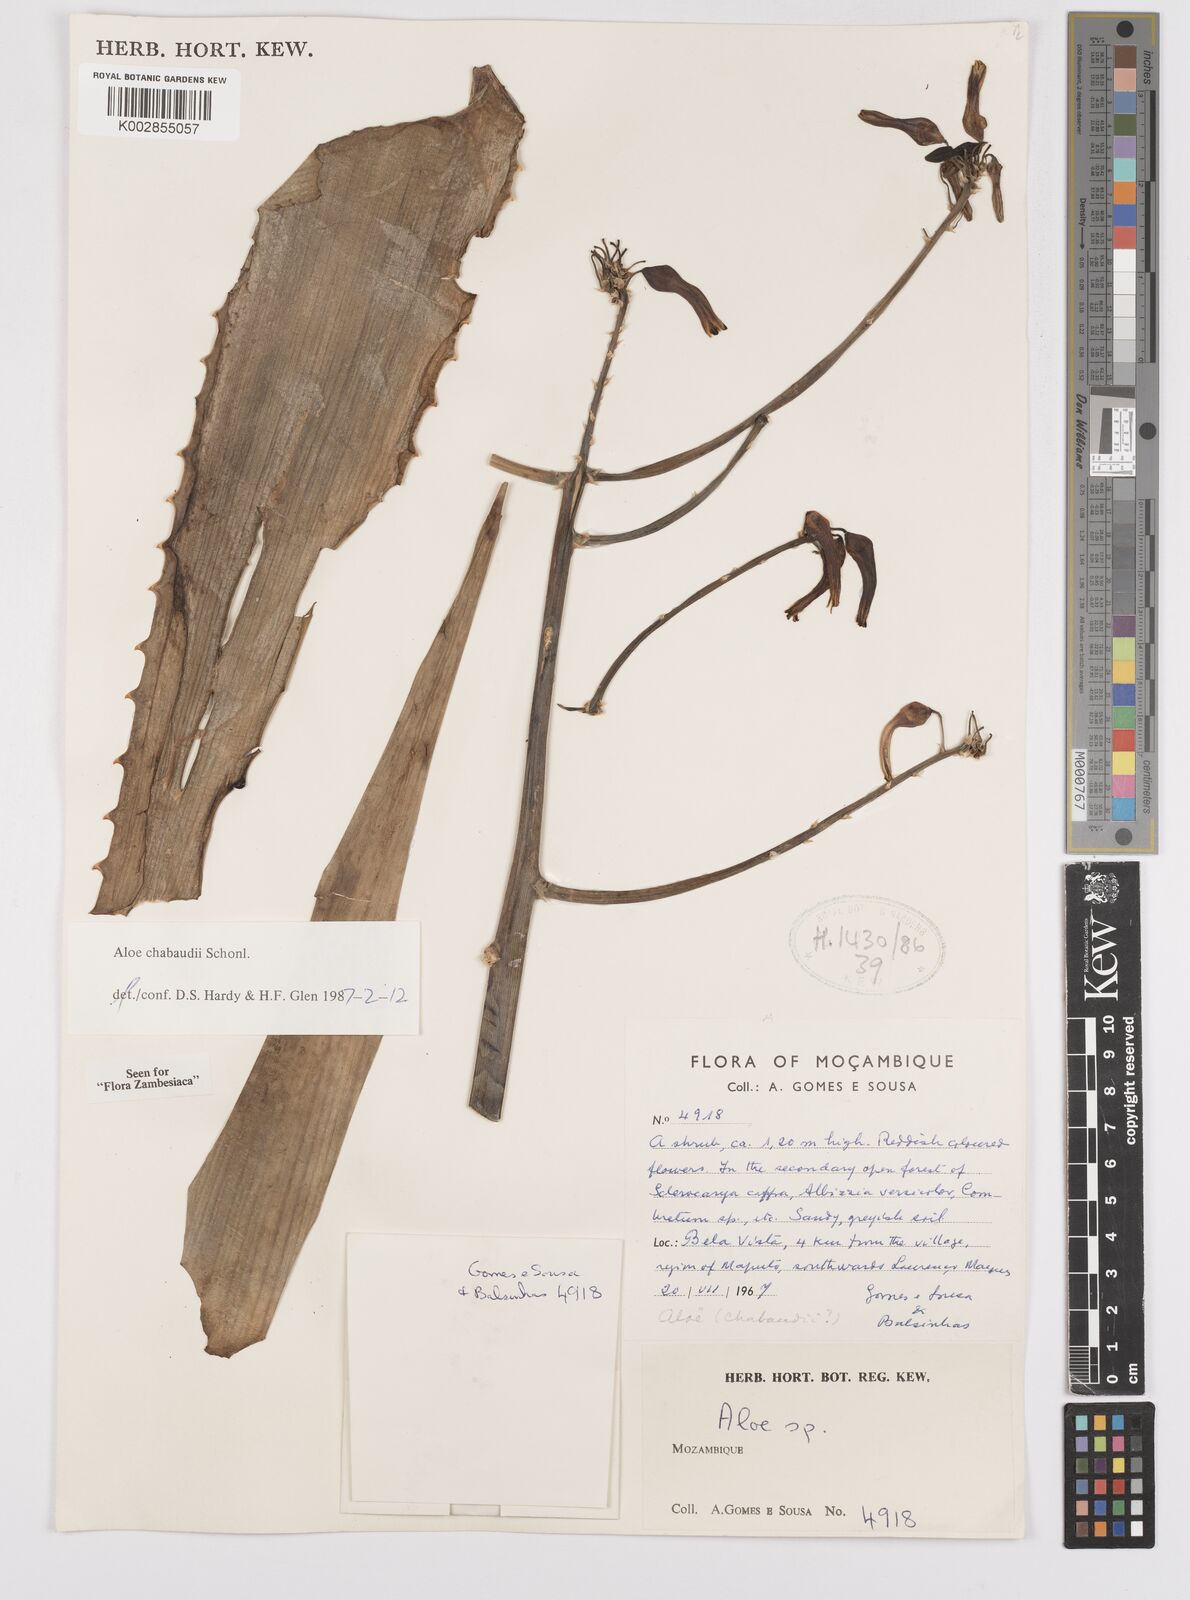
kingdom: Plantae
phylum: Tracheophyta
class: Liliopsida
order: Asparagales
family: Asphodelaceae
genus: Aloe
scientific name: Aloe chabaudii
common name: Chabaud's aloe
